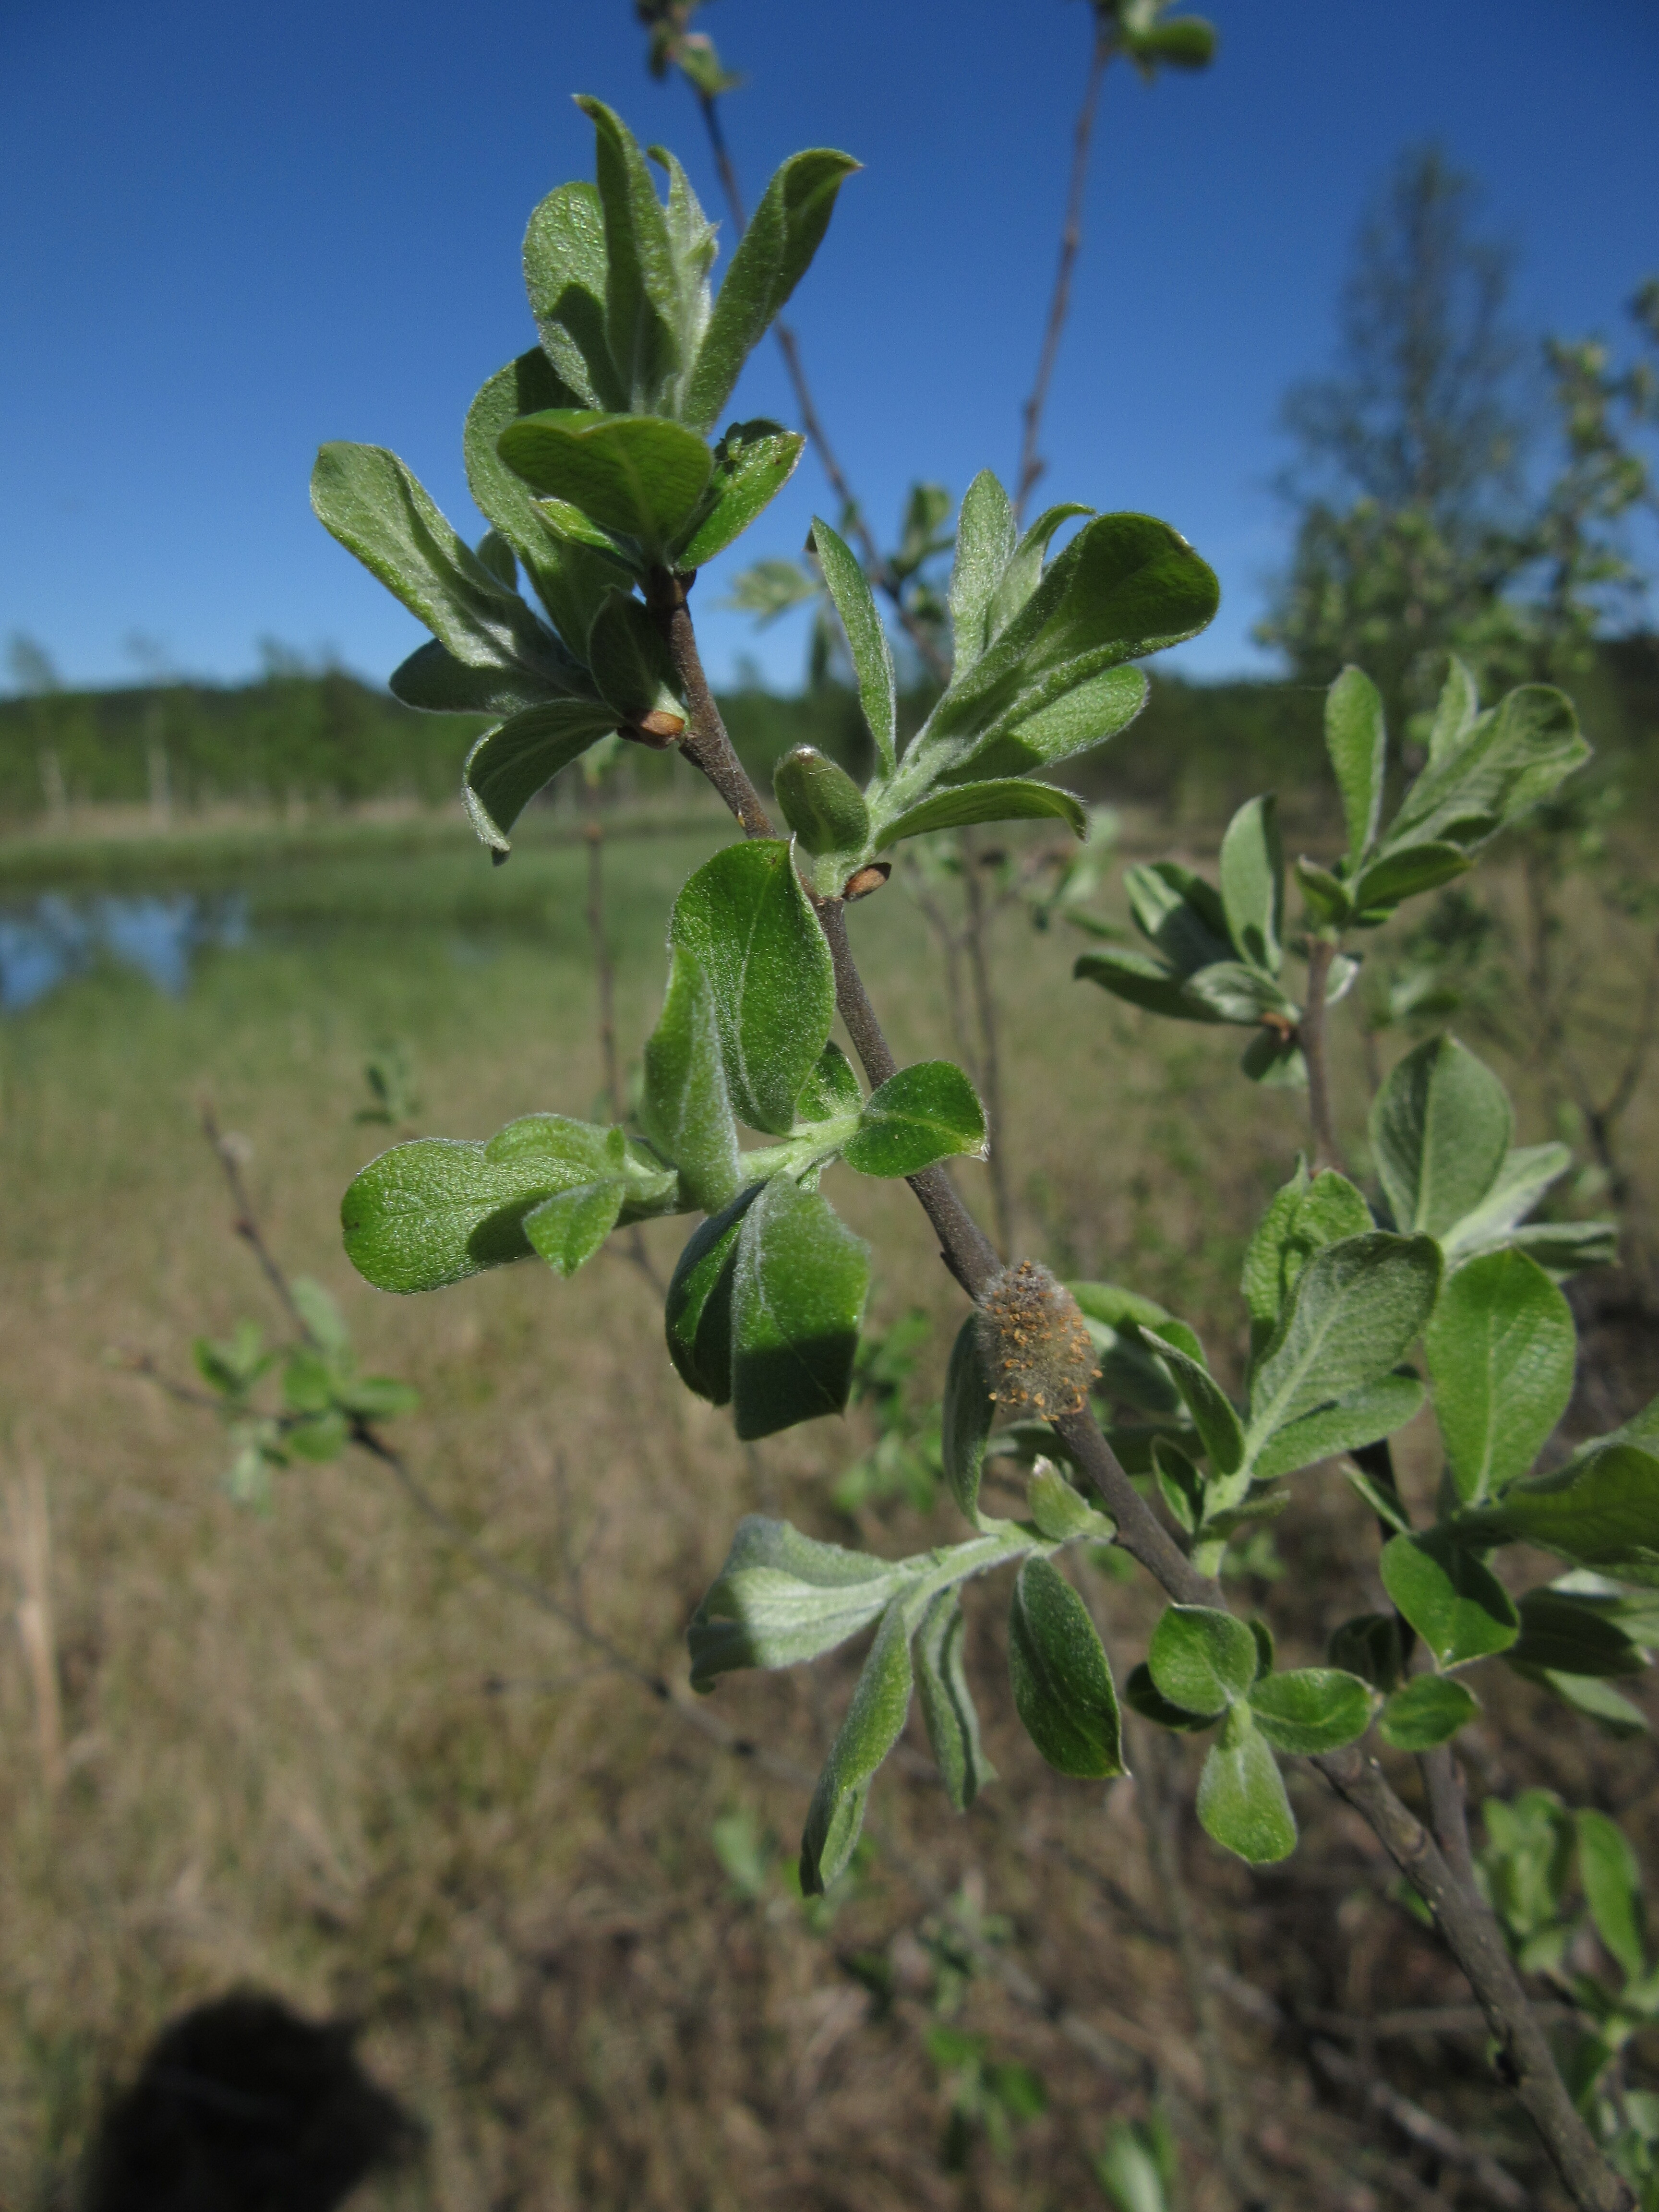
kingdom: Plantae
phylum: Tracheophyta
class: Magnoliopsida
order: Malpighiales
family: Salicaceae
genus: Salix
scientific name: Salix
